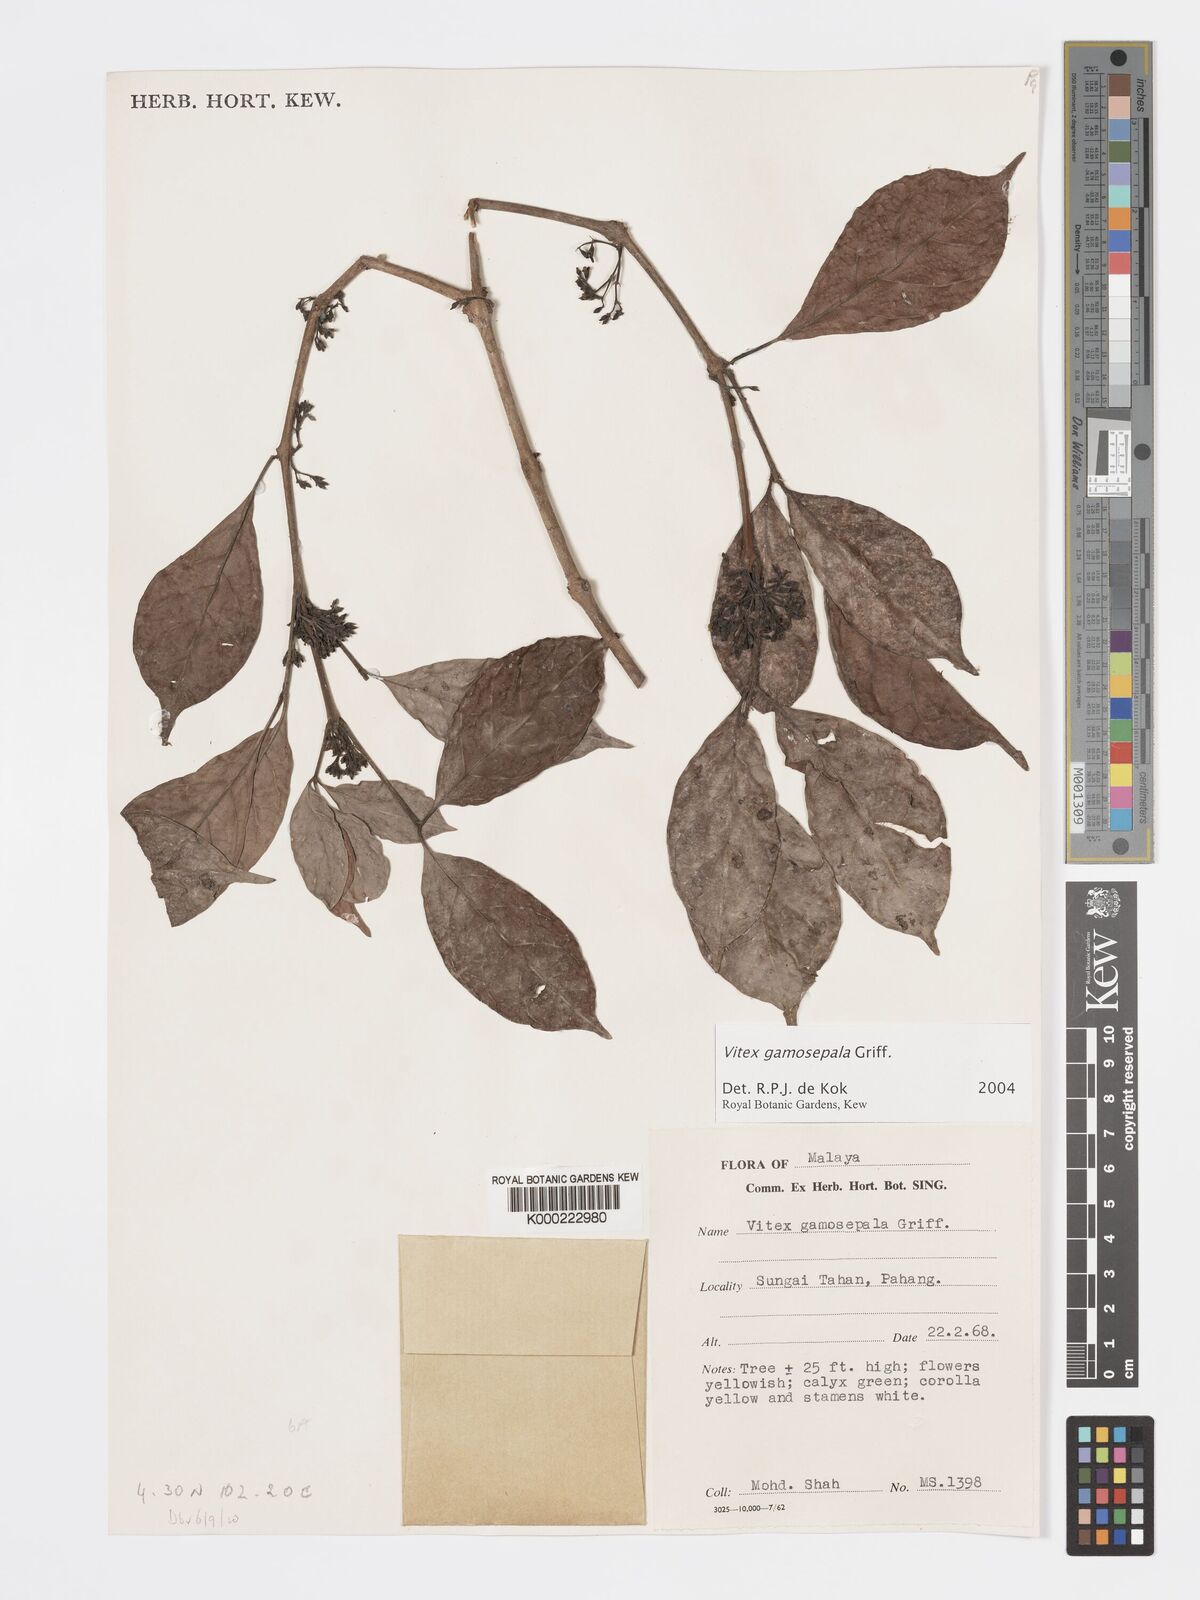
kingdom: Plantae
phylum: Tracheophyta
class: Magnoliopsida
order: Lamiales
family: Lamiaceae
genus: Vitex
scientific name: Vitex gamosepala
